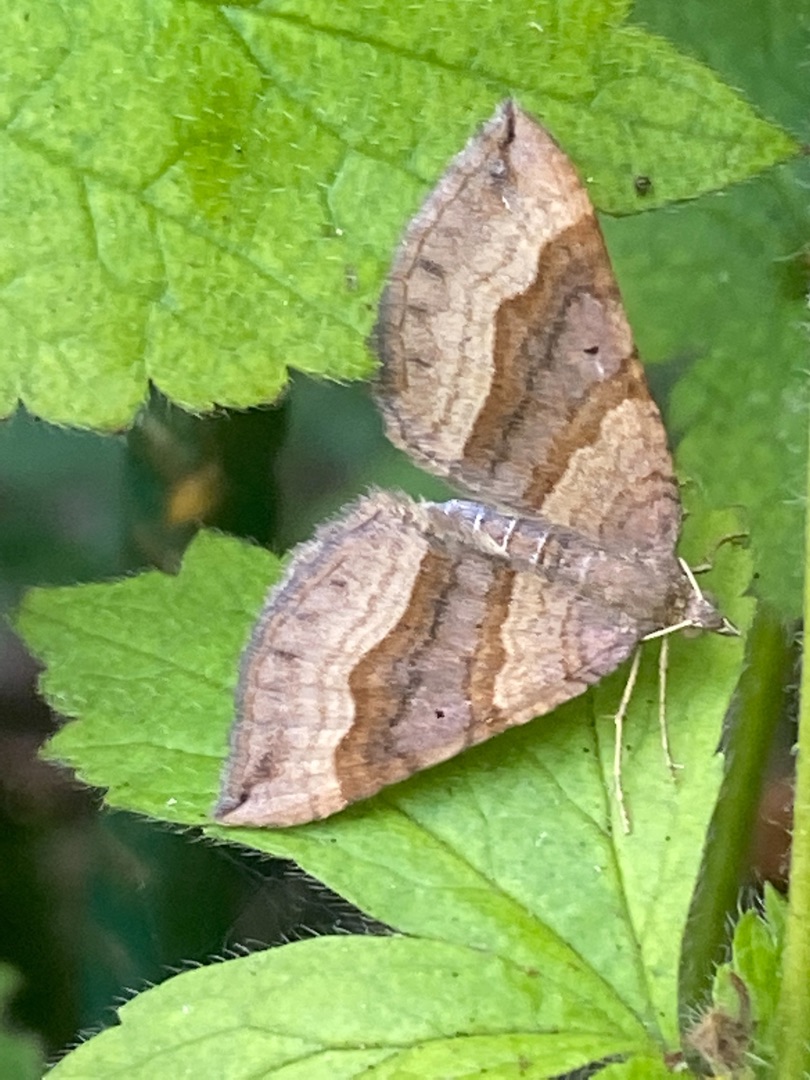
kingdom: Animalia
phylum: Arthropoda
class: Insecta
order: Lepidoptera
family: Geometridae
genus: Scotopteryx
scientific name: Scotopteryx chenopodiata
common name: Almindelig spidsvingemåler
